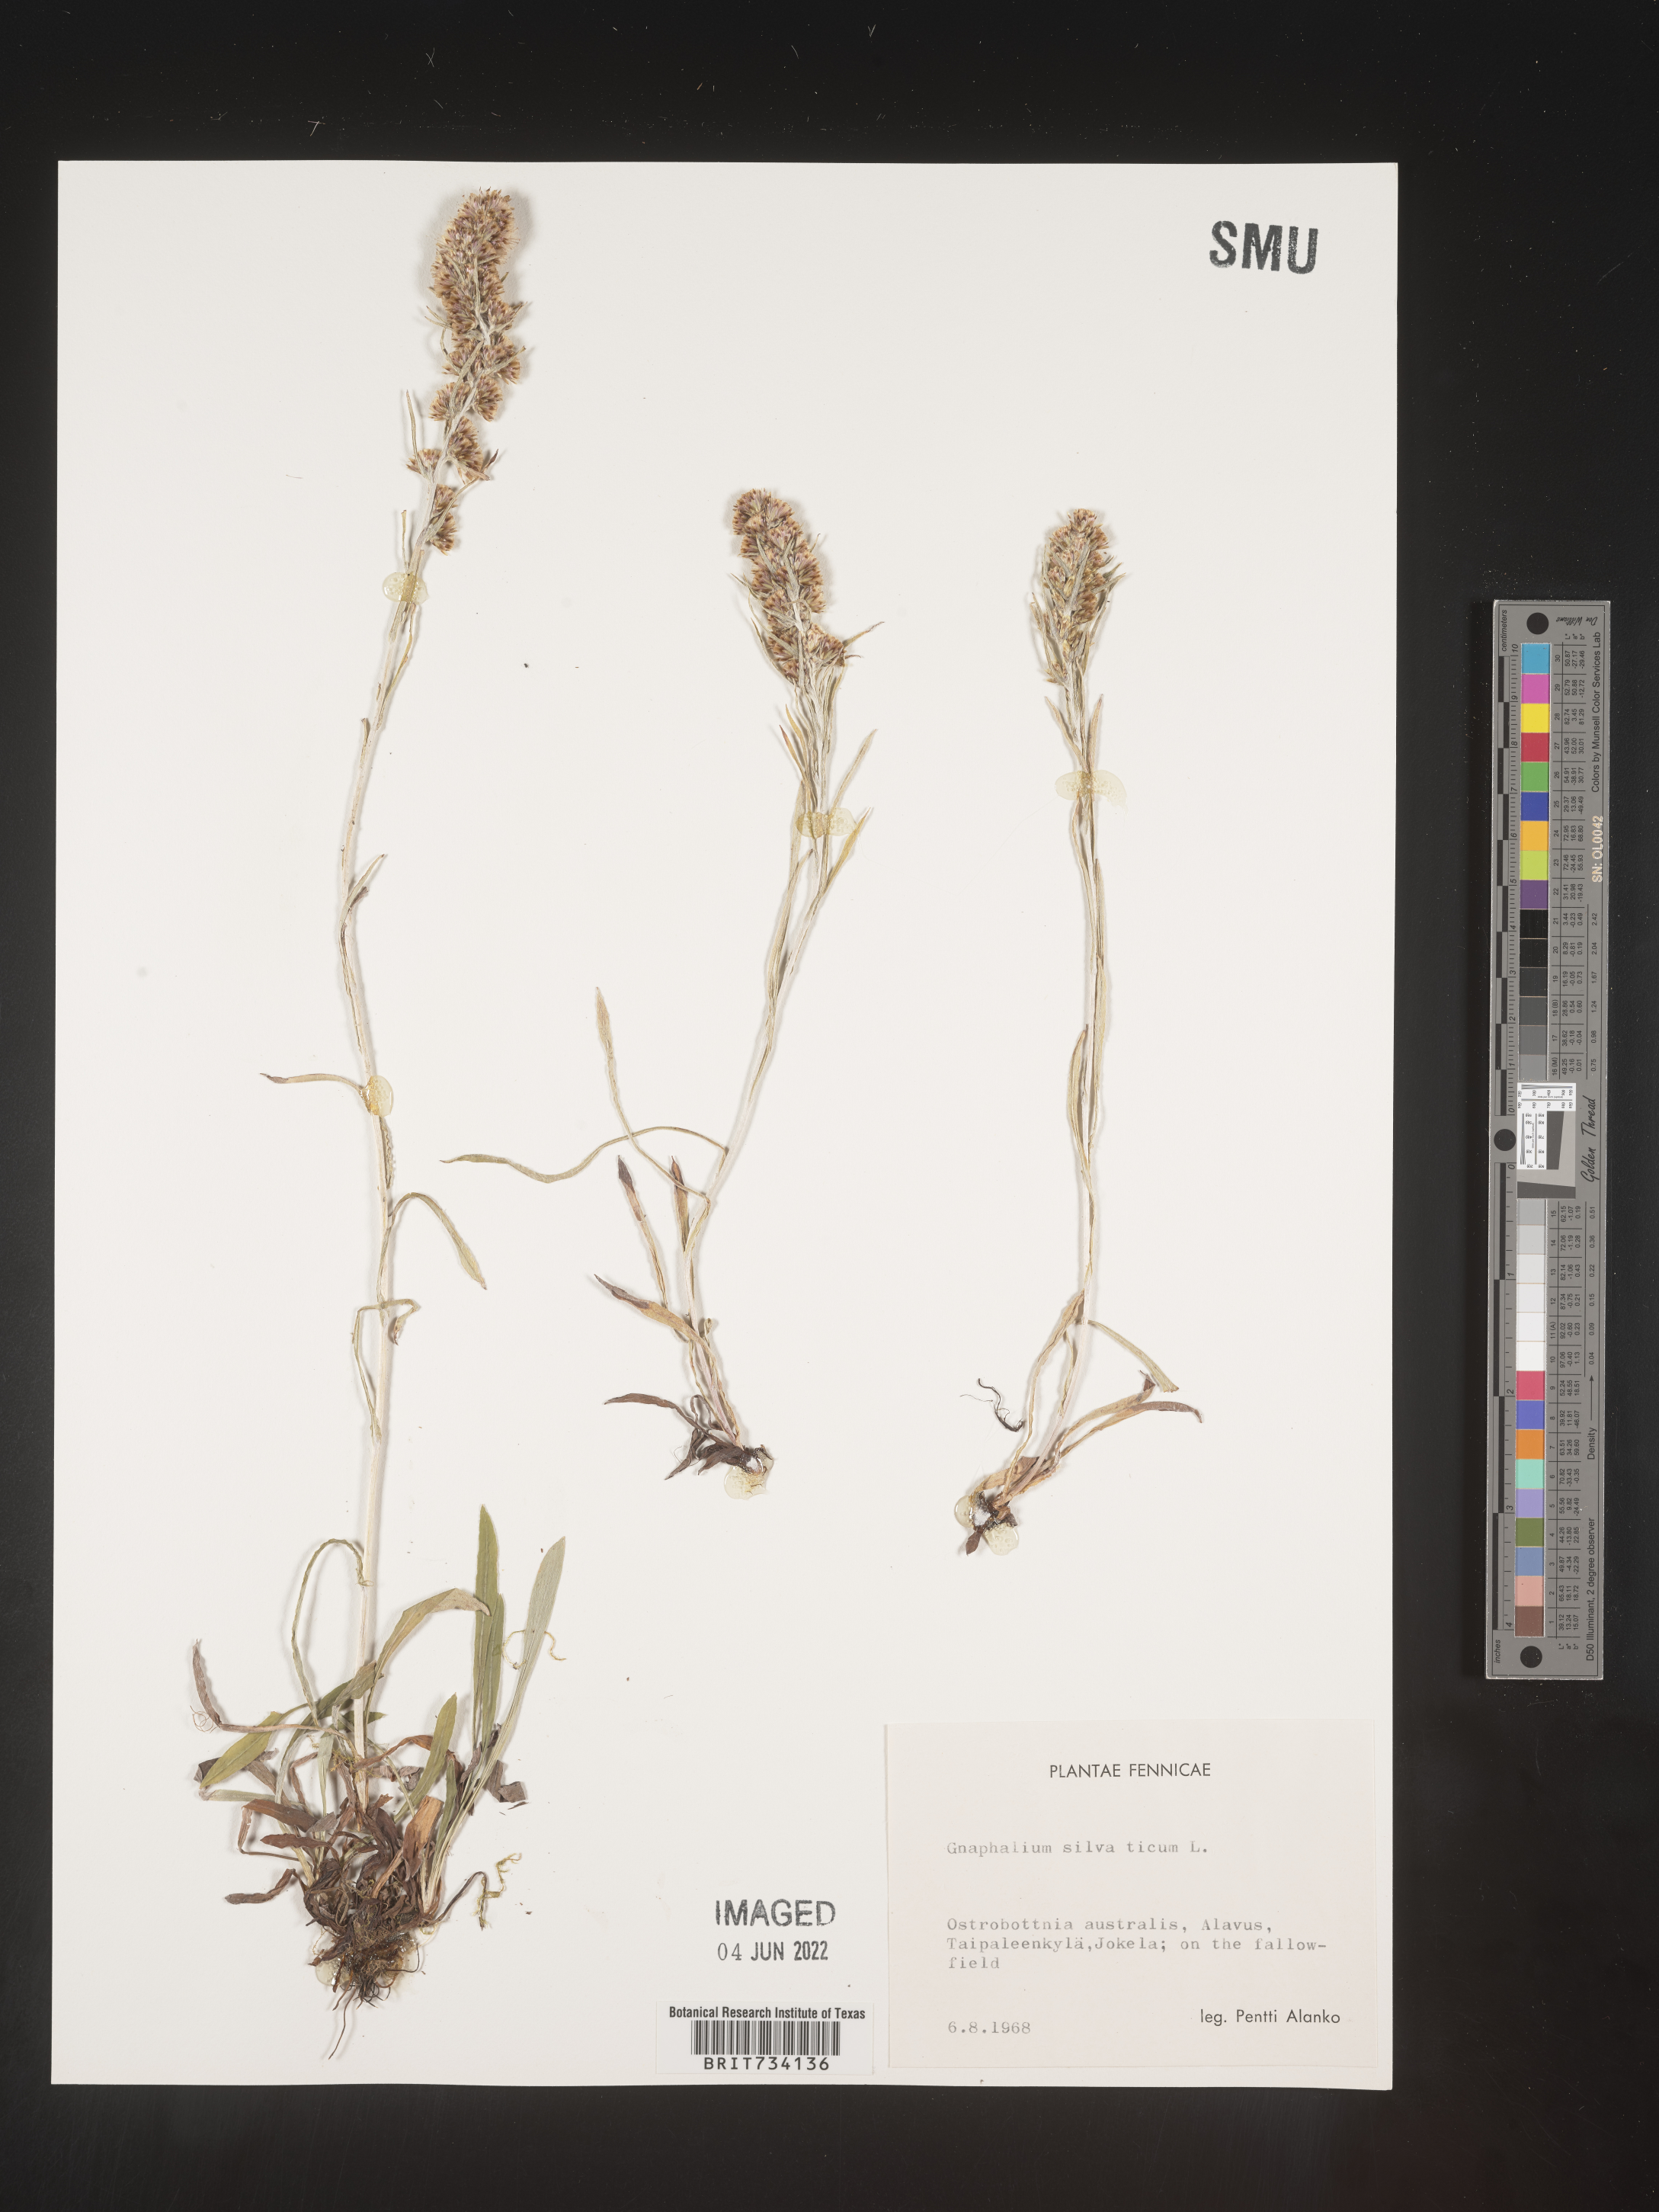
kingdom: Plantae
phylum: Tracheophyta
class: Magnoliopsida
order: Asterales
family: Asteraceae
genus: Omalotheca
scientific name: Omalotheca sylvatica
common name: Heath cudweed
